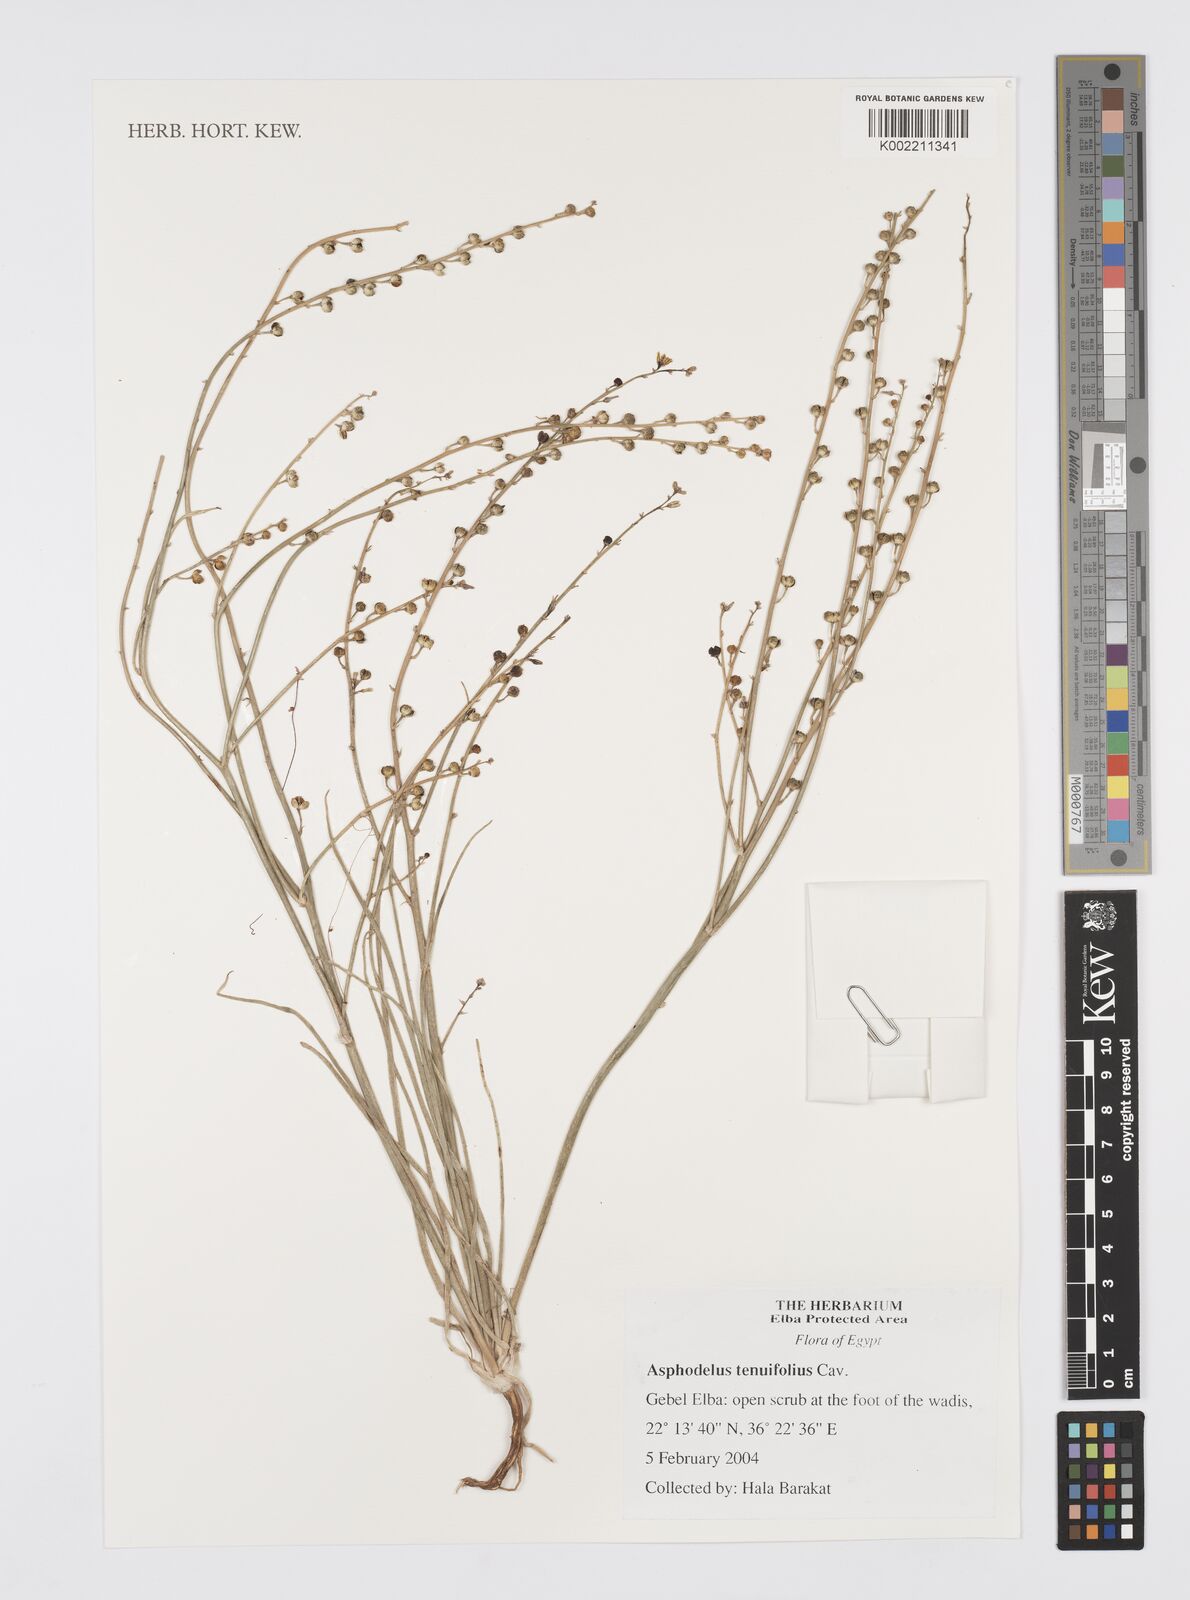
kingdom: Plantae
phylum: Tracheophyta
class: Liliopsida
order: Asparagales
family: Asphodelaceae
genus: Asphodelus
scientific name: Asphodelus tenuifolius
